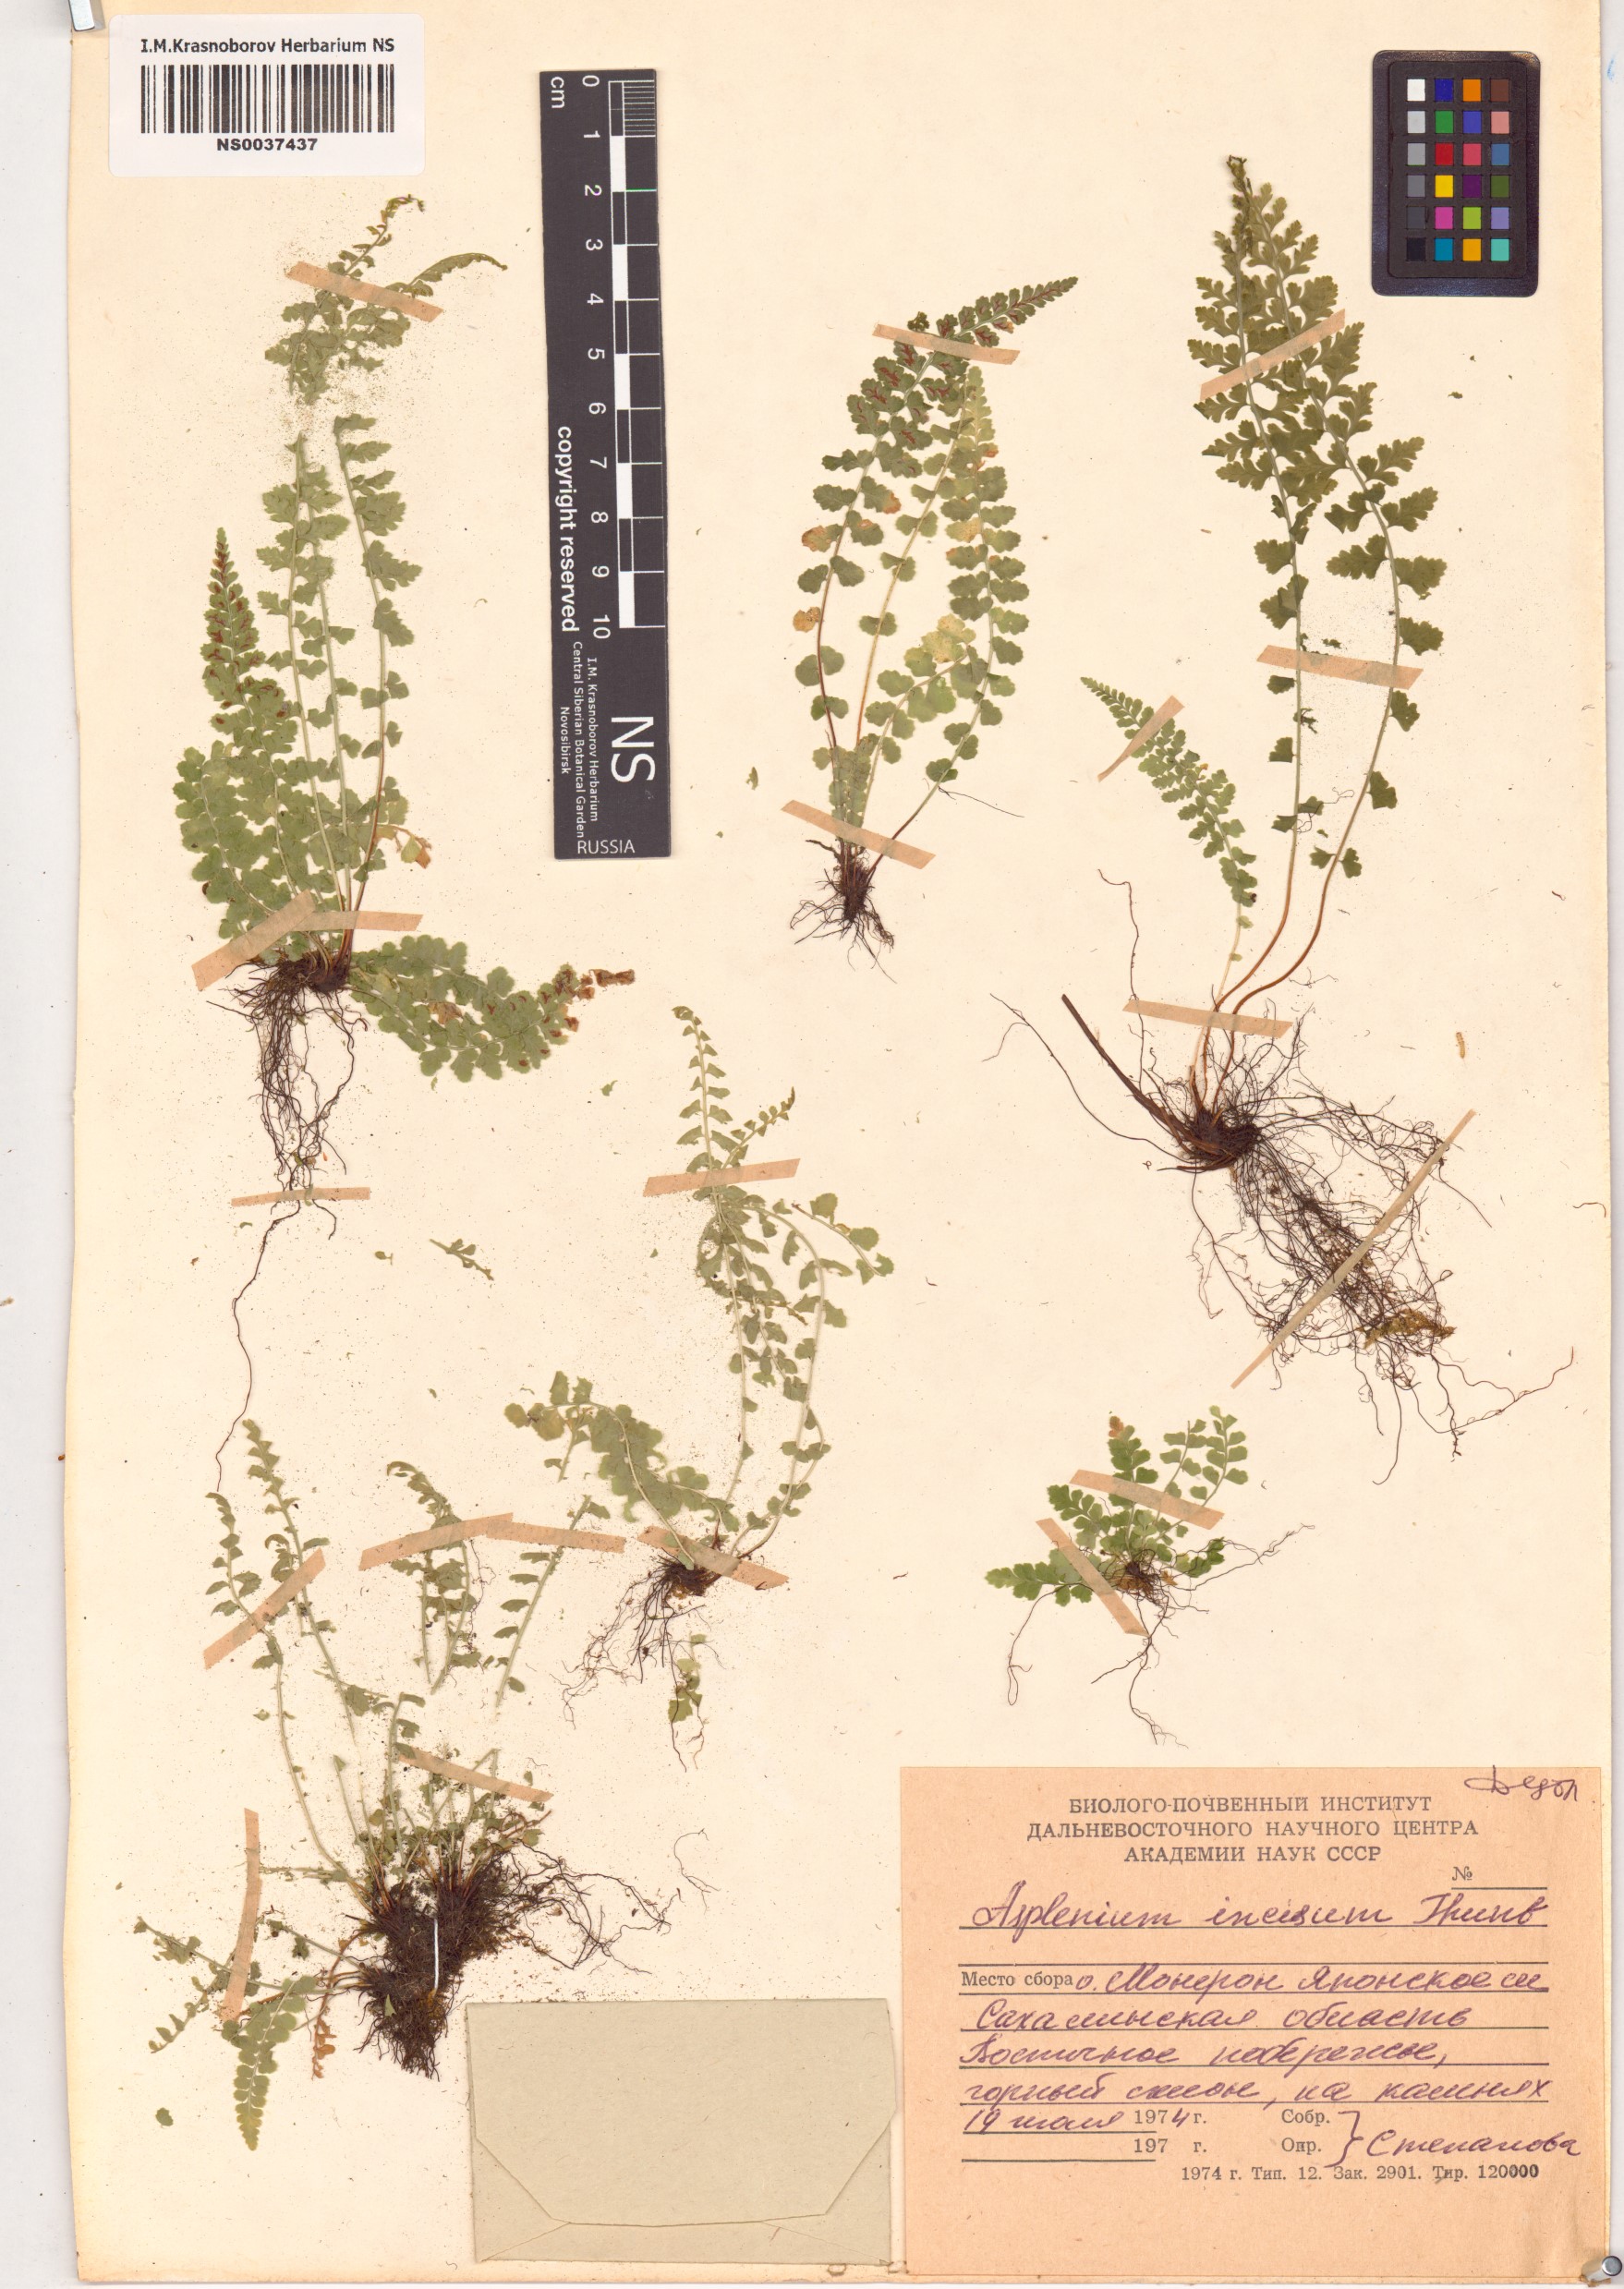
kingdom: Plantae
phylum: Tracheophyta
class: Polypodiopsida
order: Polypodiales
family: Aspleniaceae
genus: Asplenium
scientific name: Asplenium incisum
